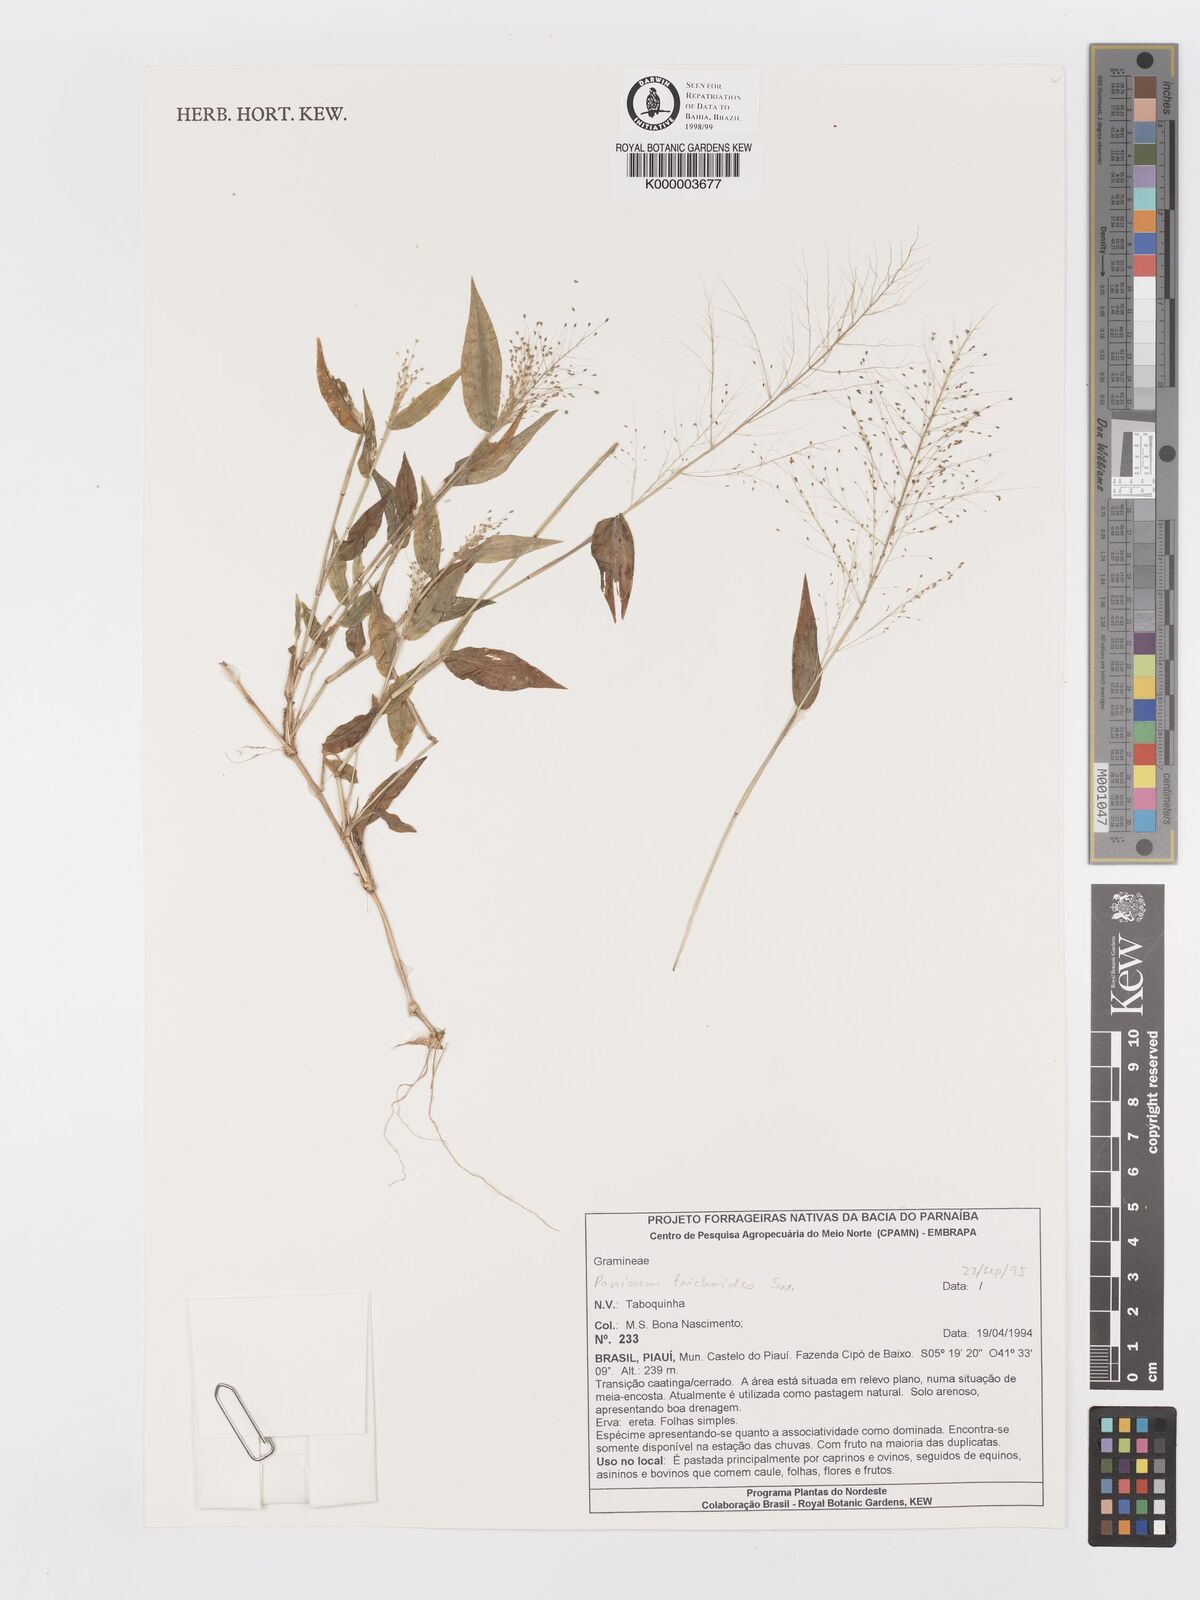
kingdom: Plantae
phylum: Tracheophyta
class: Liliopsida
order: Poales
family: Poaceae
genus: Panicum
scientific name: Panicum
